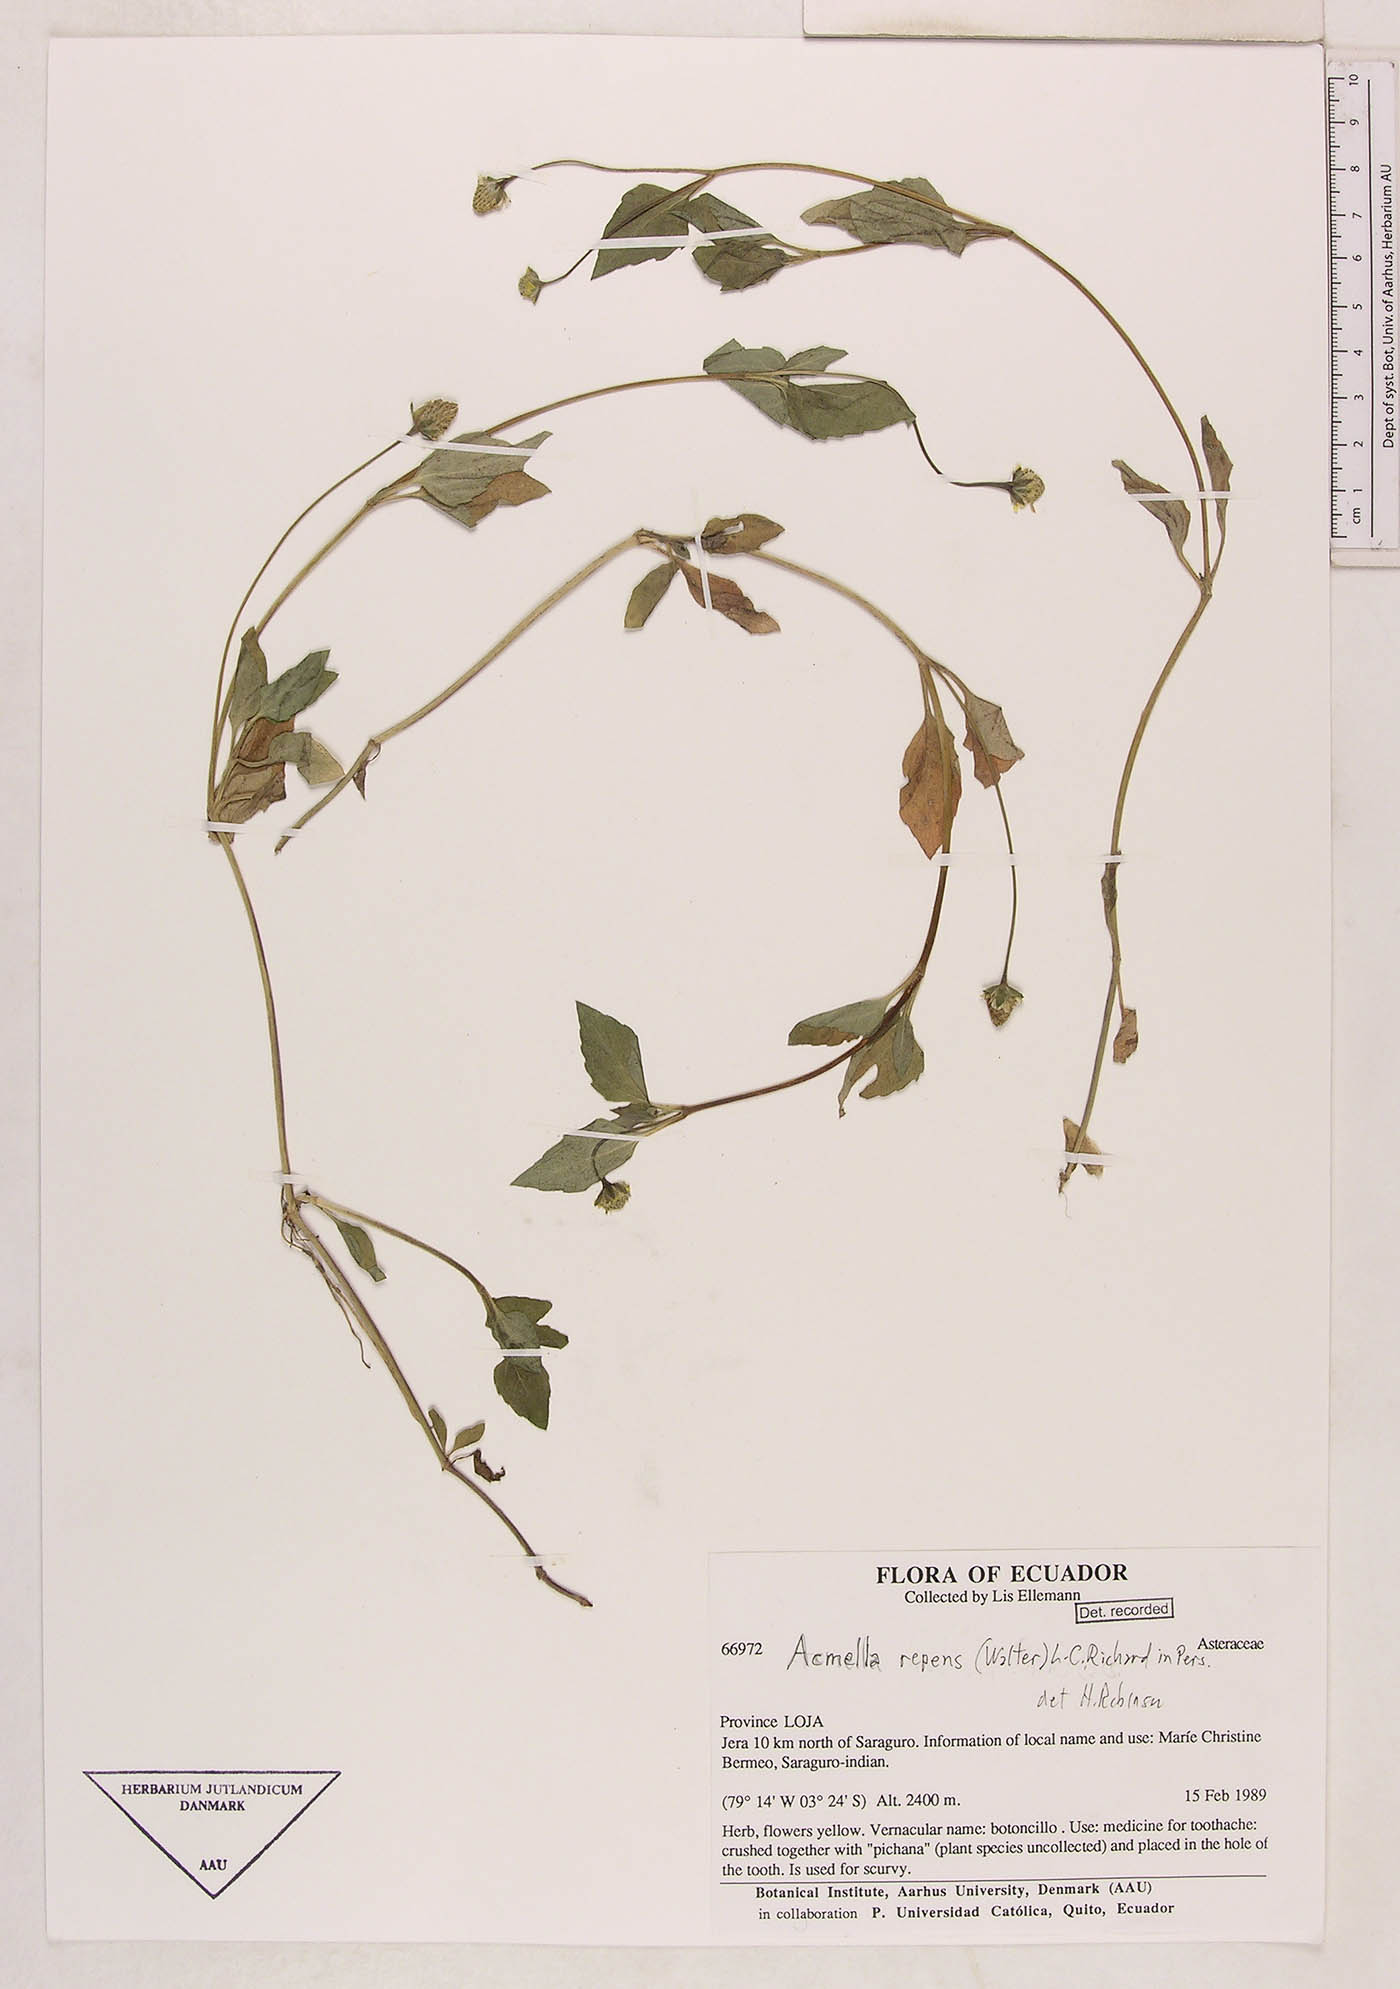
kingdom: Plantae
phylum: Tracheophyta
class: Magnoliopsida
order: Asterales
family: Asteraceae
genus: Acmella
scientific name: Acmella repens
